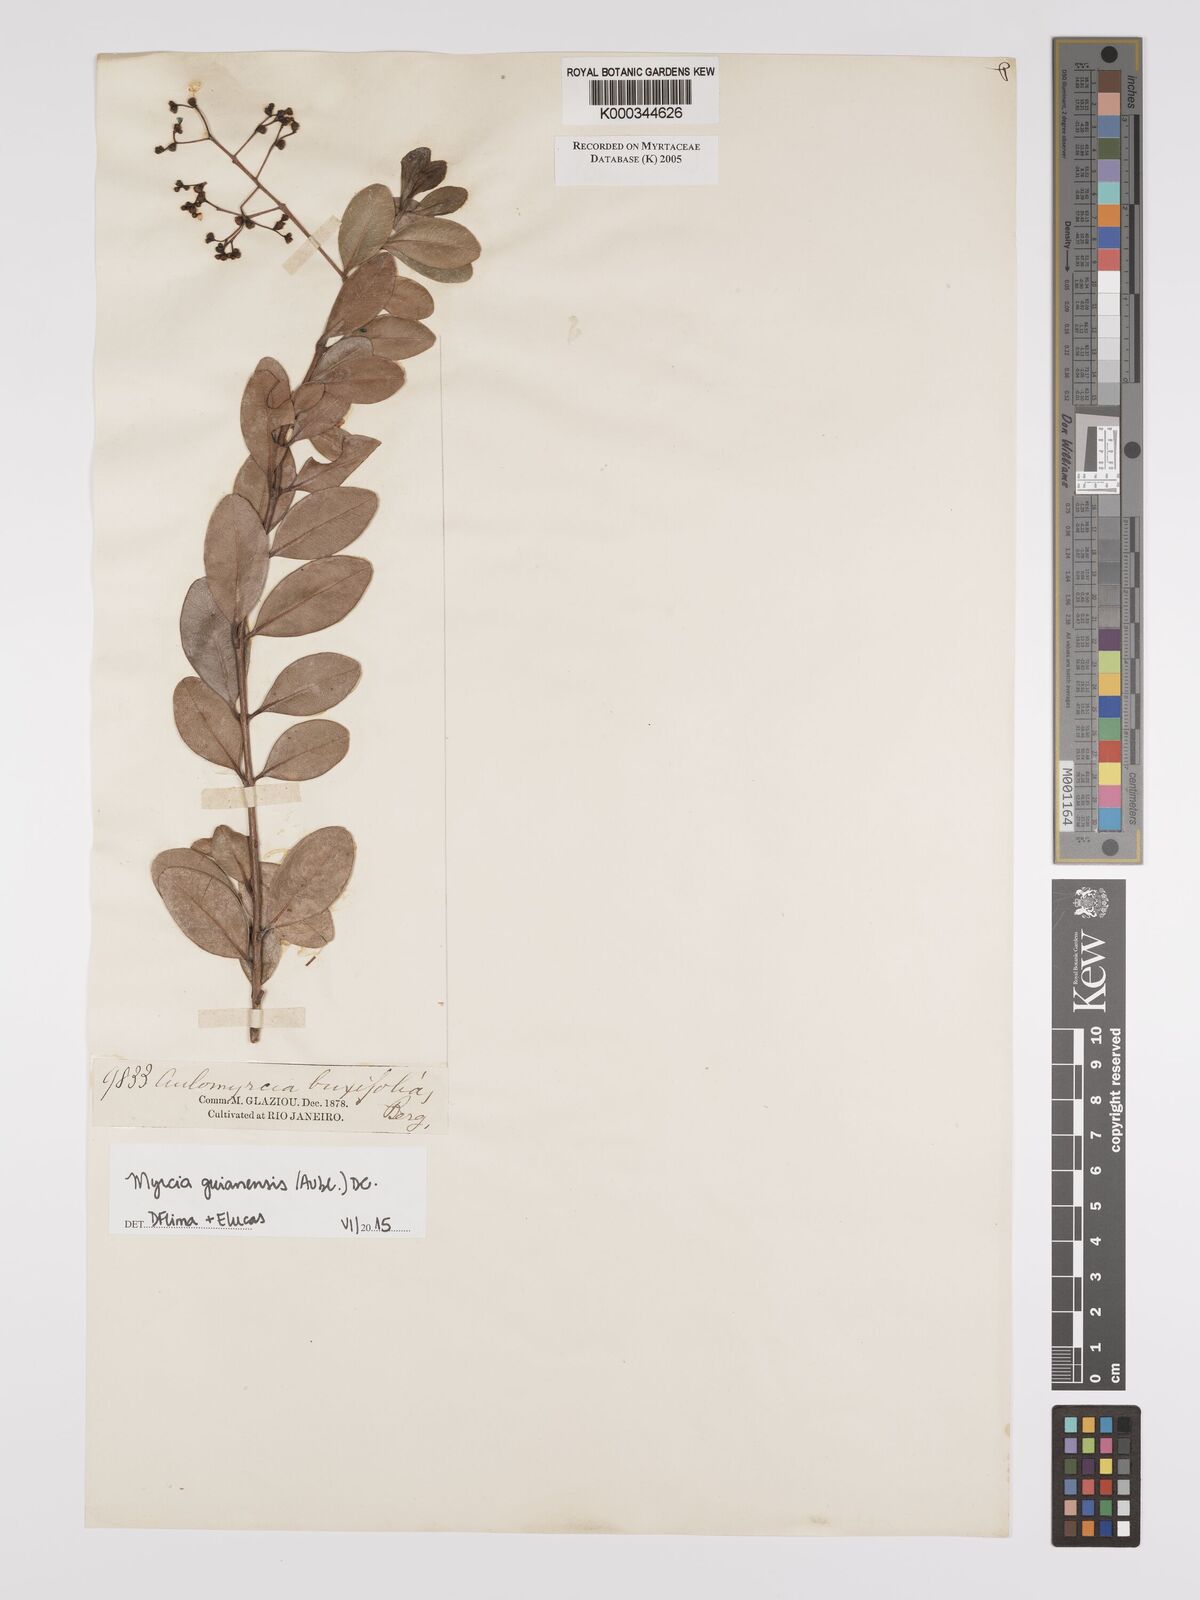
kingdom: Plantae
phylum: Tracheophyta
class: Magnoliopsida
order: Myrtales
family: Myrtaceae
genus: Myrcia
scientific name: Myrcia guianensis
